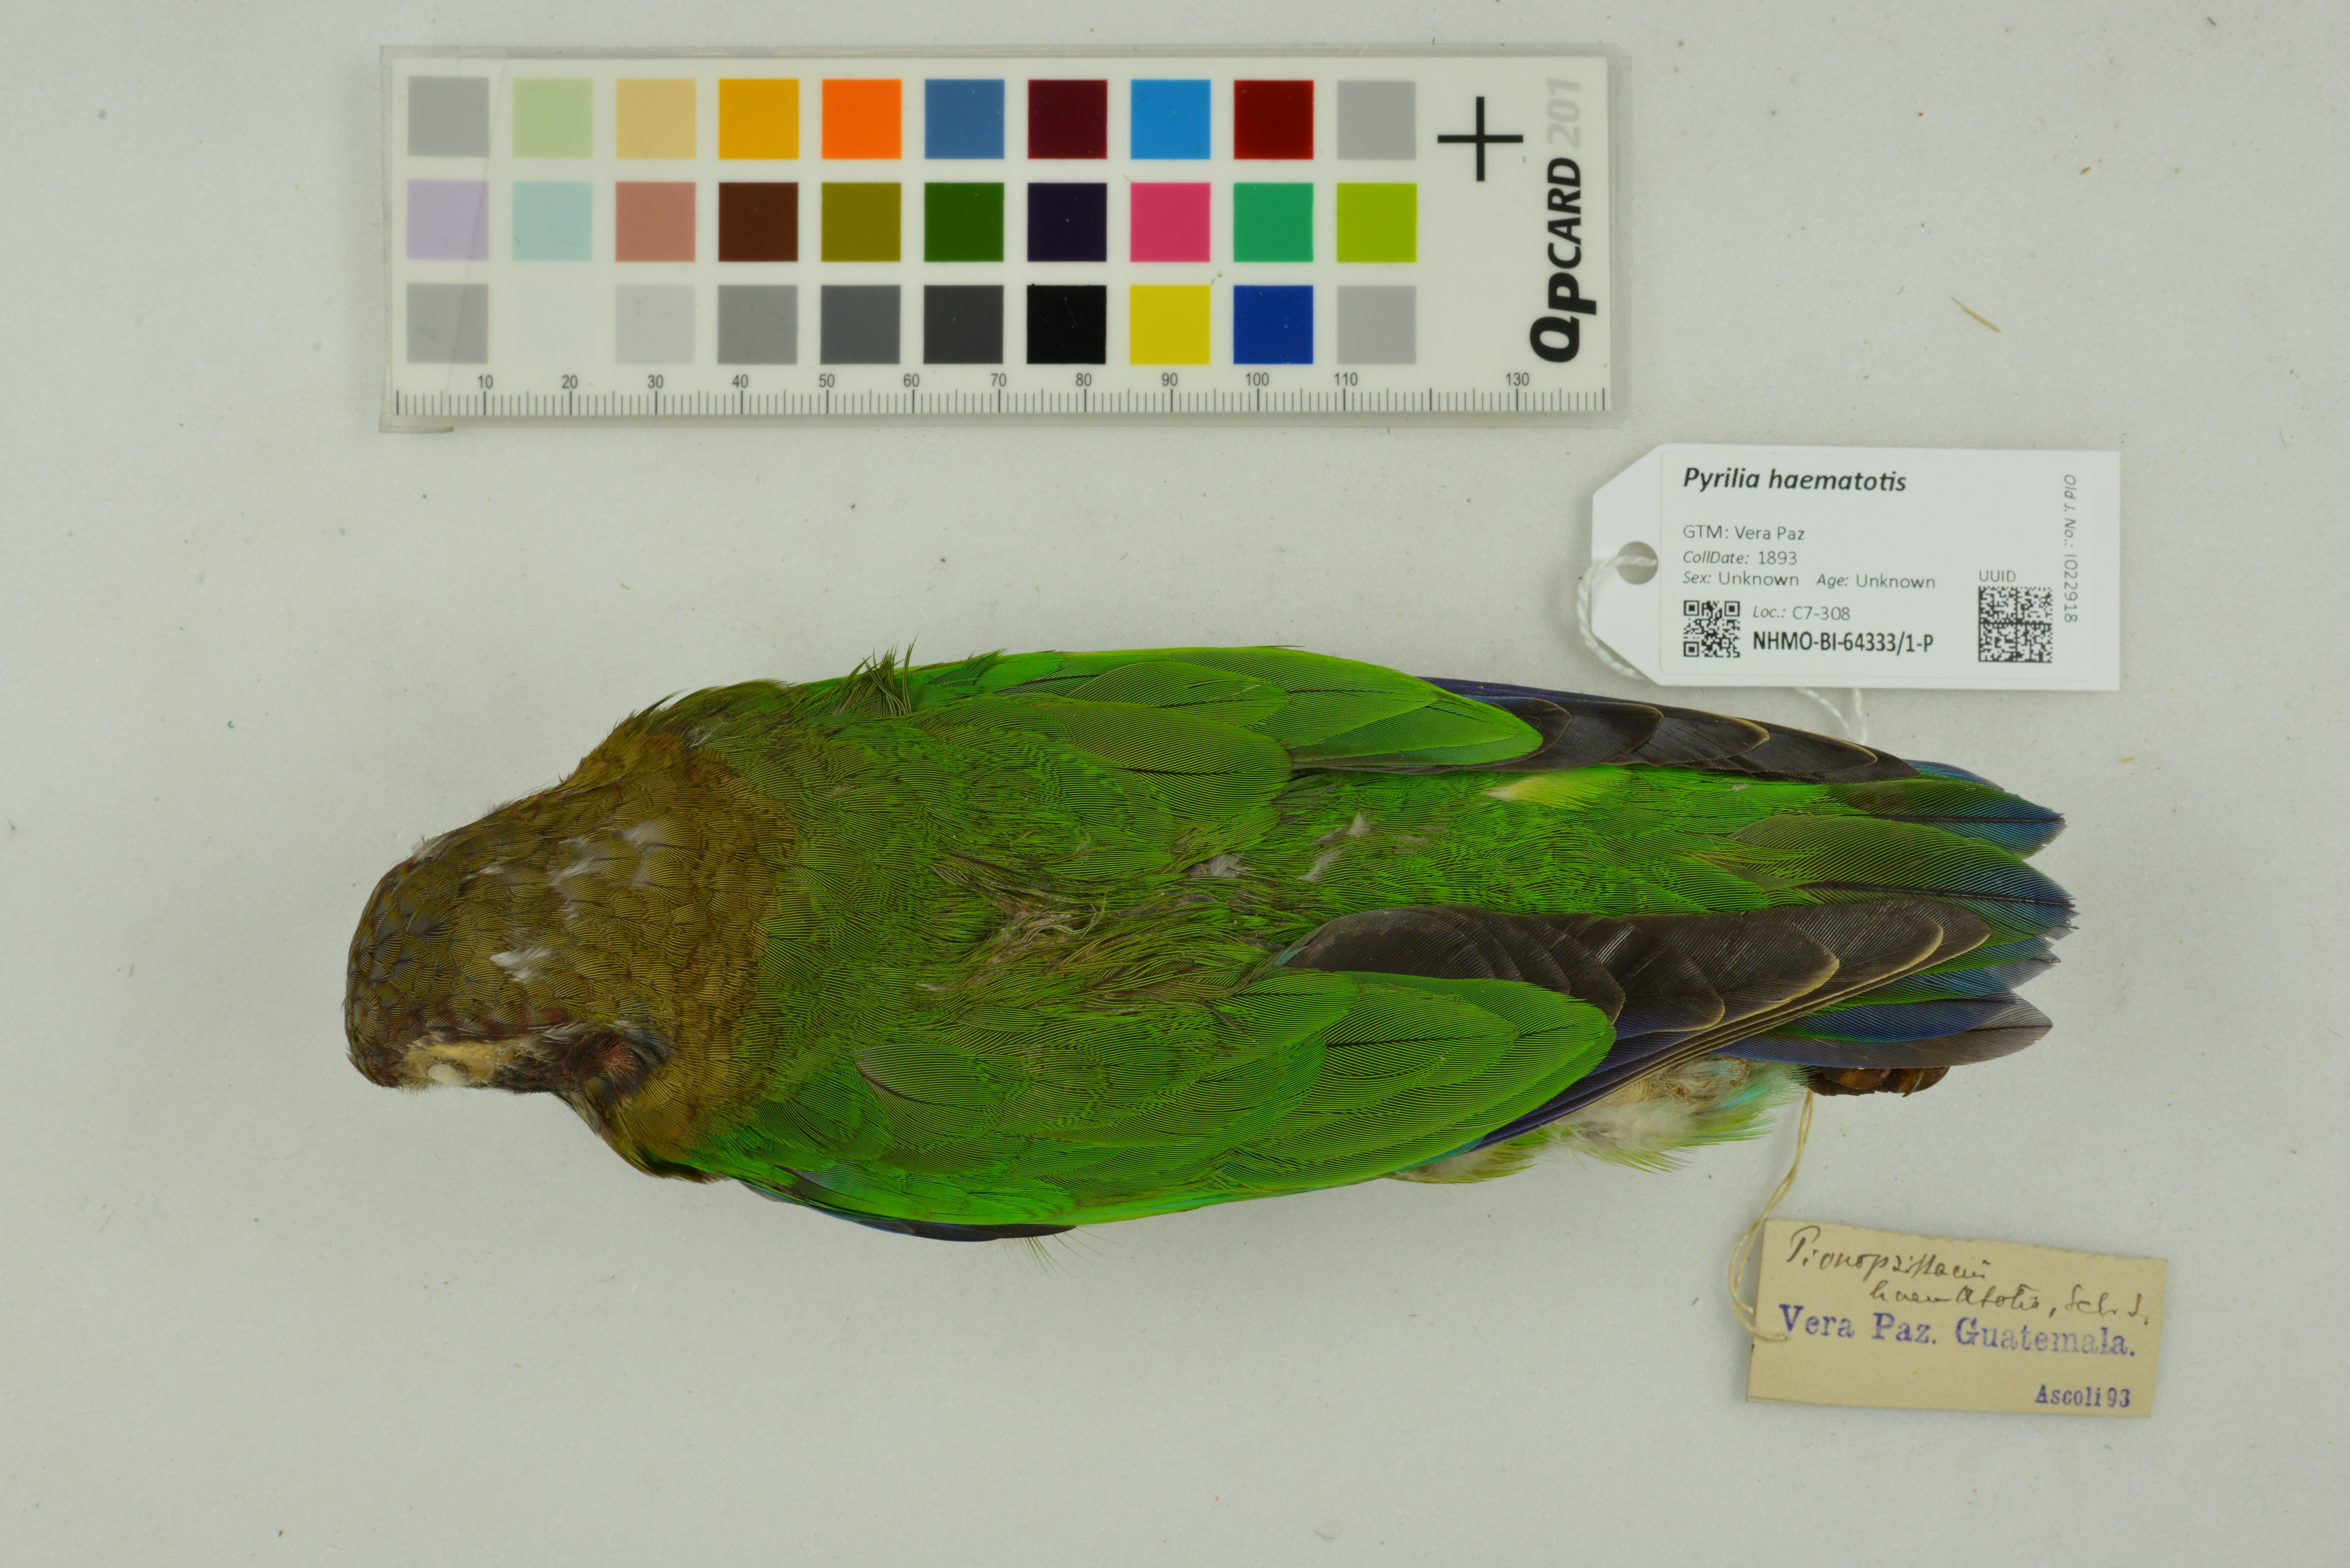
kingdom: Animalia
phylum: Chordata
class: Aves
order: Psittaciformes
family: Psittacidae
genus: Pionopsitta
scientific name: Pionopsitta haematotis
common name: Brown-hooded parrot
